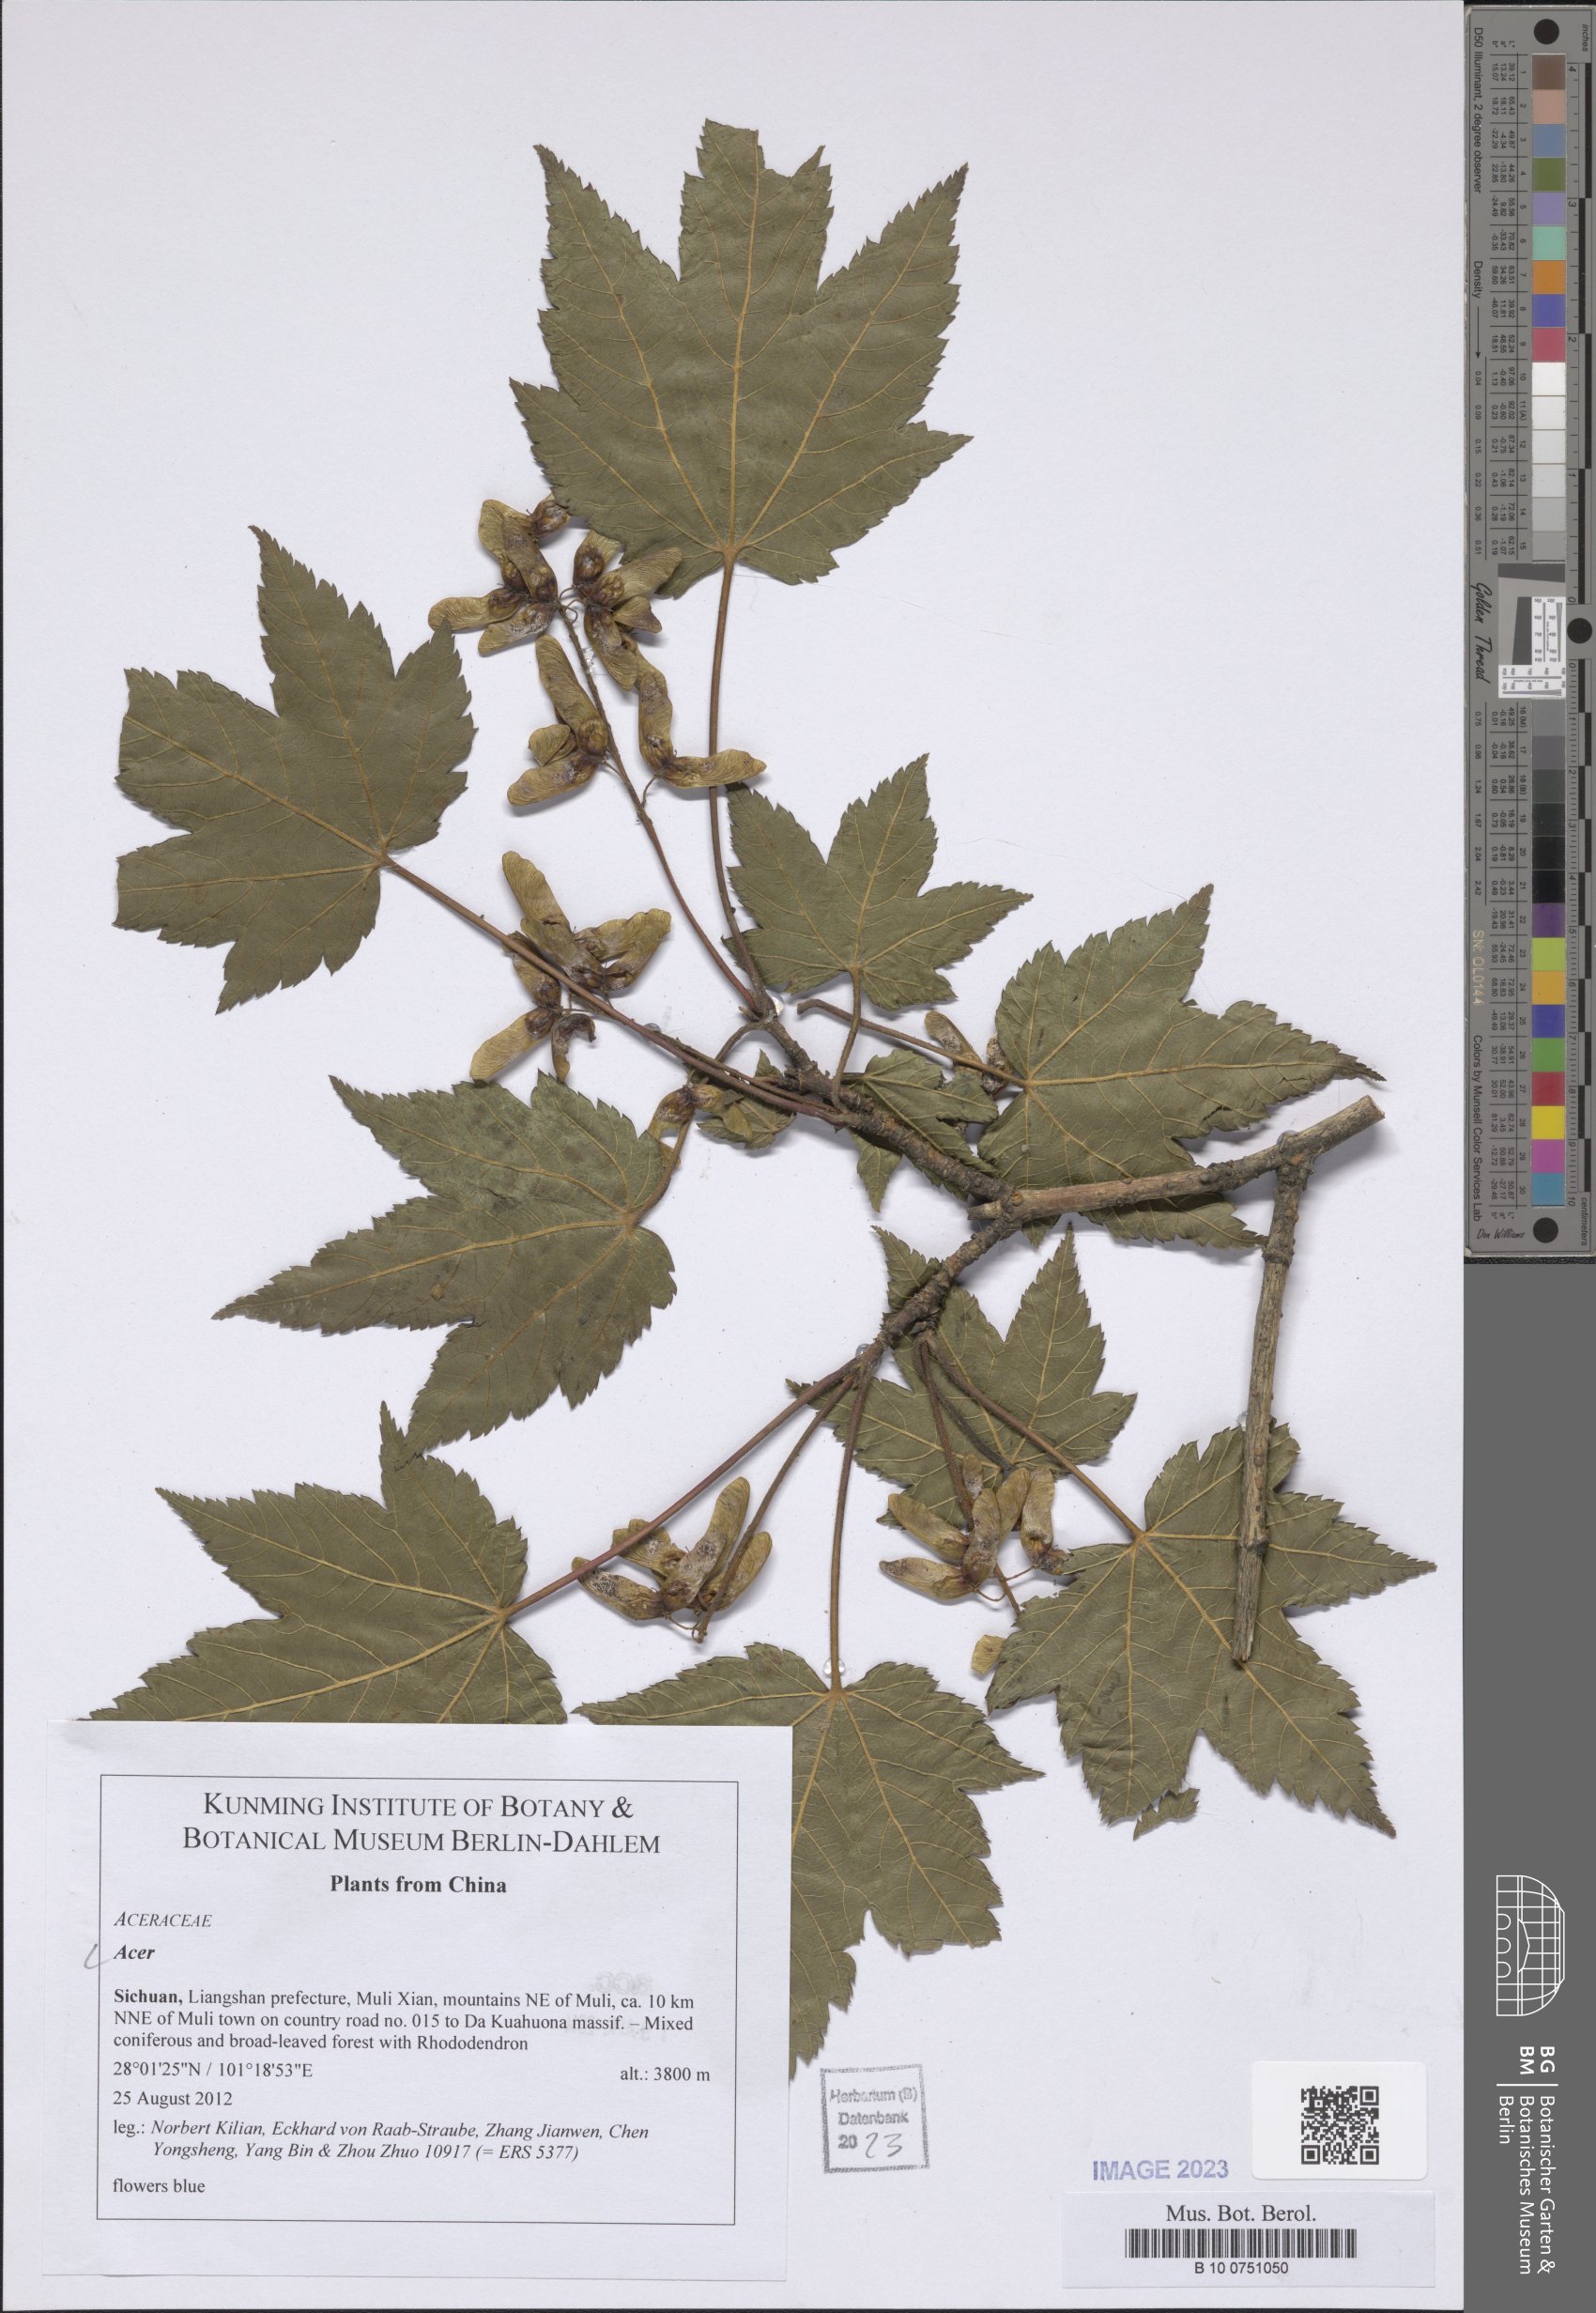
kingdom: Plantae
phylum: Tracheophyta
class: Magnoliopsida
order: Sapindales
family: Sapindaceae
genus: Acer
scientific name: Acer
